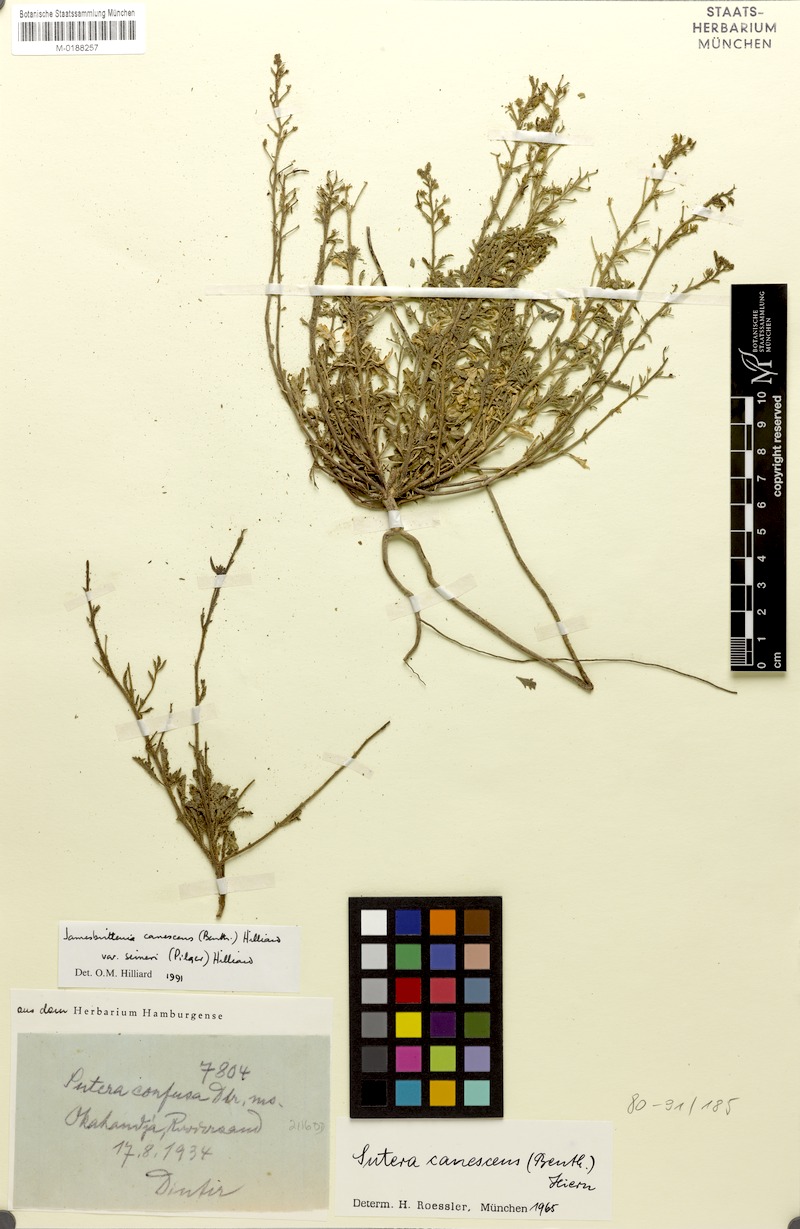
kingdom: Plantae
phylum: Tracheophyta
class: Magnoliopsida
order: Lamiales
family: Scrophulariaceae
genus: Jamesbrittenia
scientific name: Jamesbrittenia canescens
